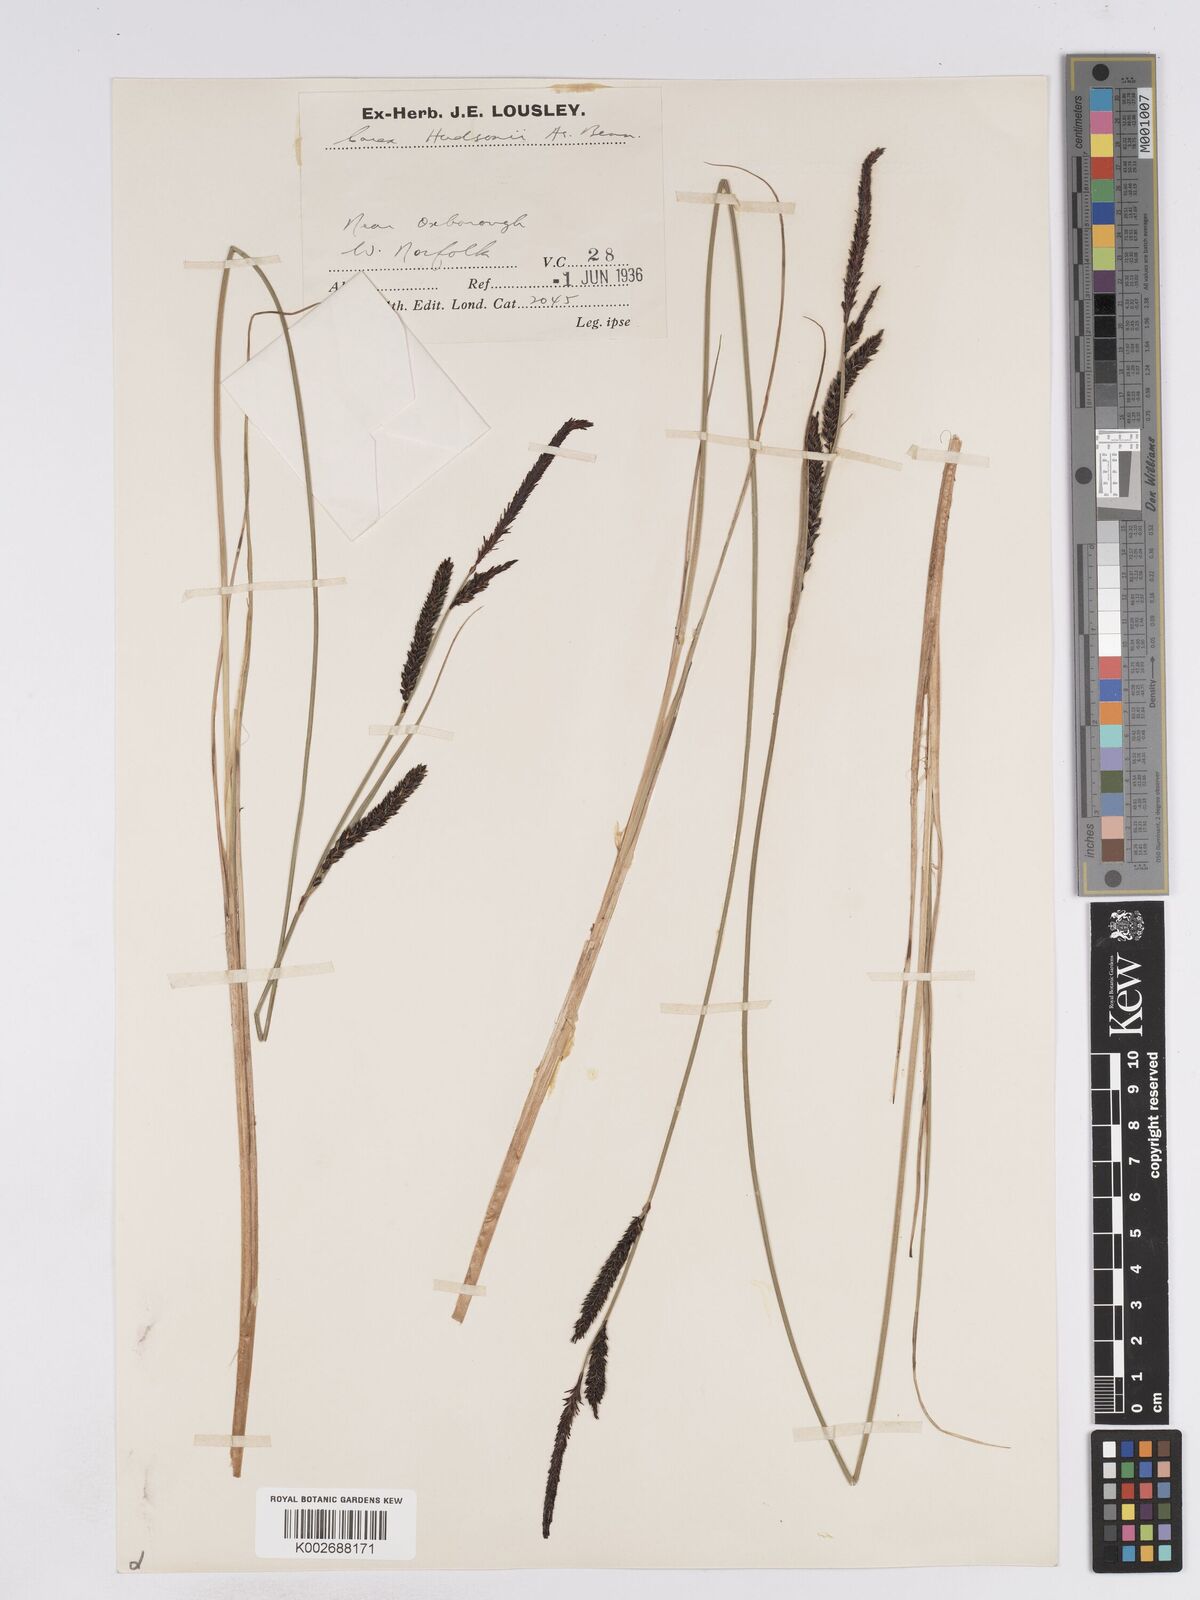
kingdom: Plantae
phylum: Tracheophyta
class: Liliopsida
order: Poales
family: Cyperaceae
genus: Carex
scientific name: Carex elata
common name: Tufted sedge
